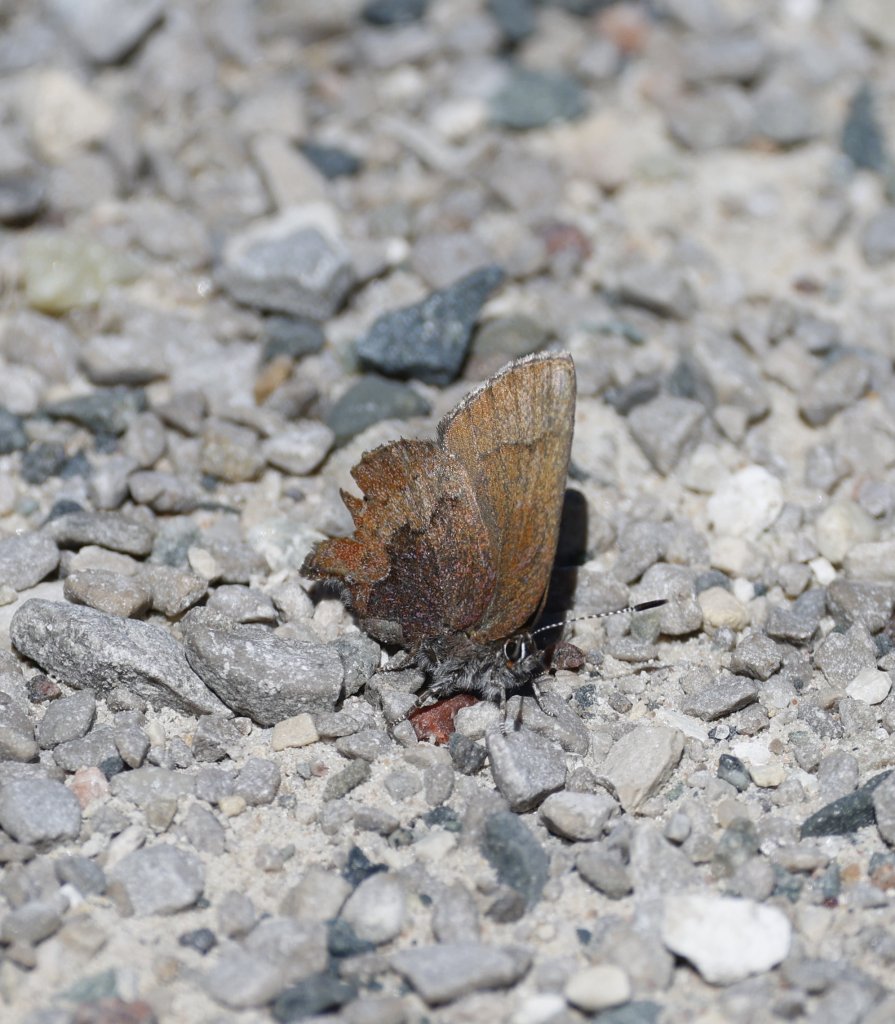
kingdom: Animalia
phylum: Arthropoda
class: Insecta
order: Lepidoptera
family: Lycaenidae
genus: Incisalia
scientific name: Incisalia irioides
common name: Brown Elfin
